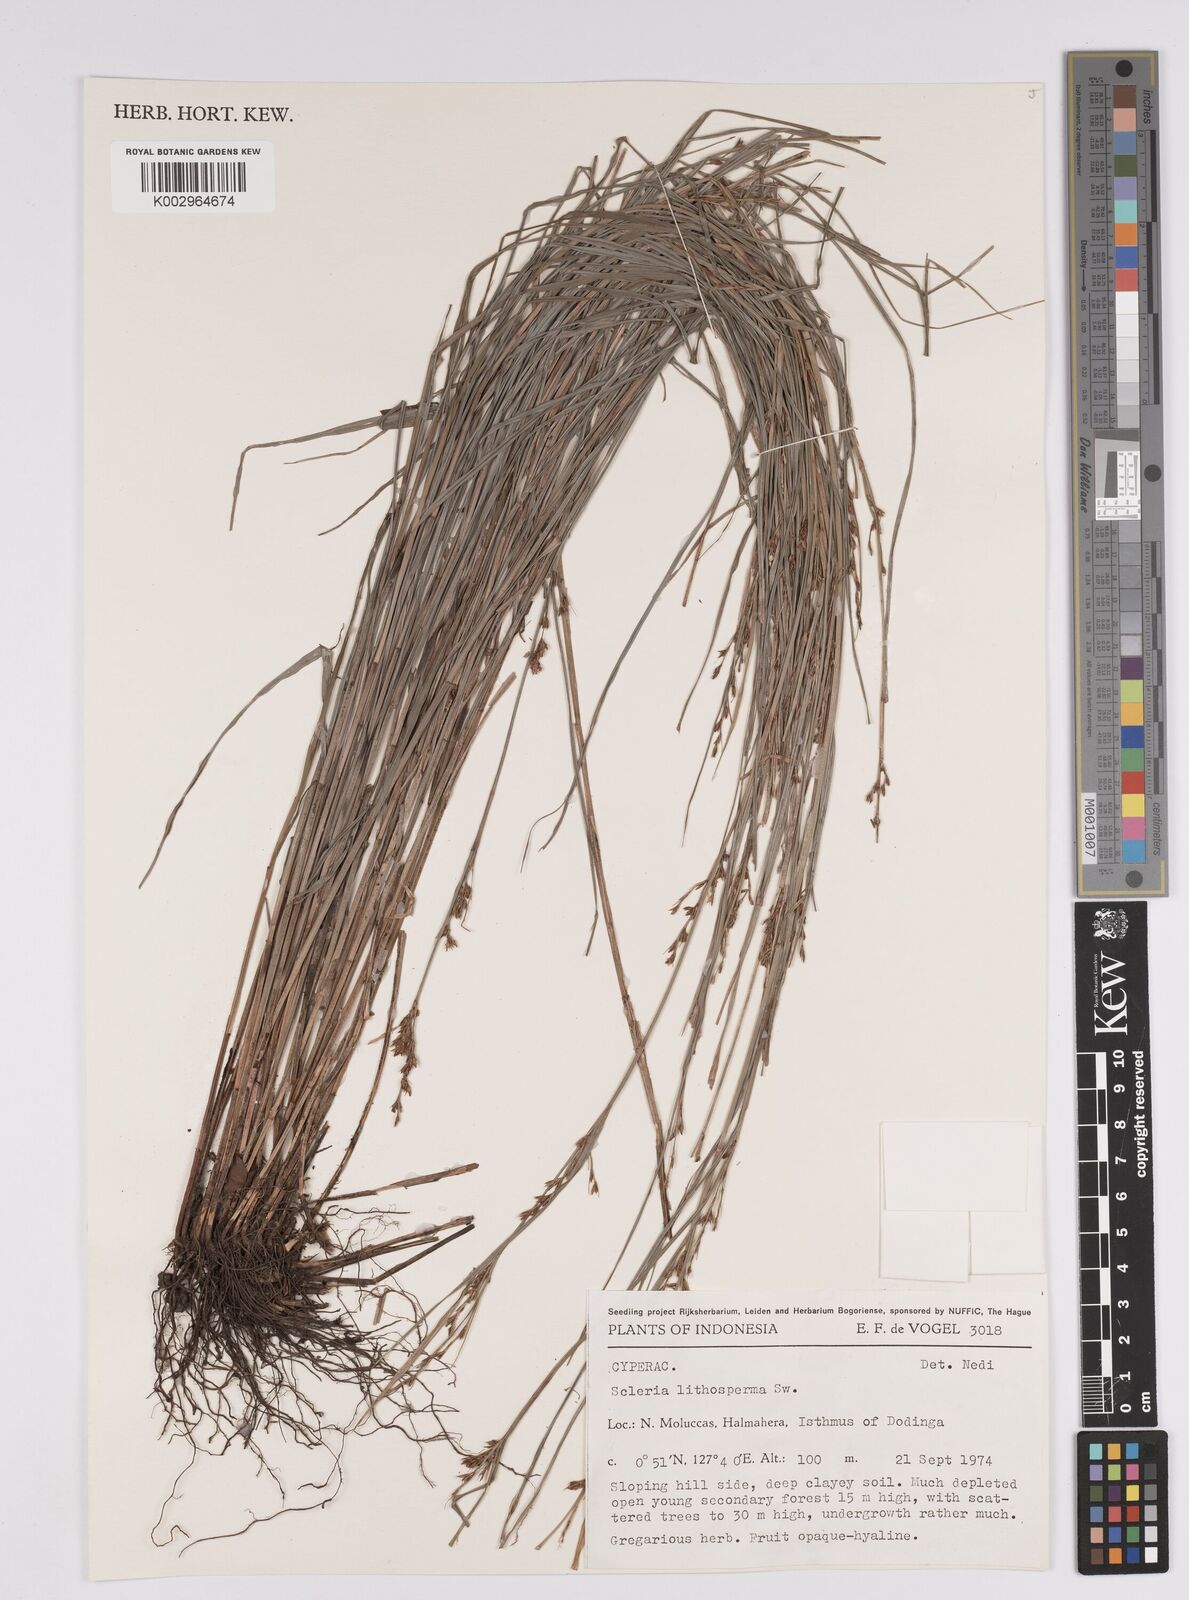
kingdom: Plantae
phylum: Tracheophyta
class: Liliopsida
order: Poales
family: Cyperaceae
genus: Scleria
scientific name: Scleria lithosperma
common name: Florida keys nut-rush
